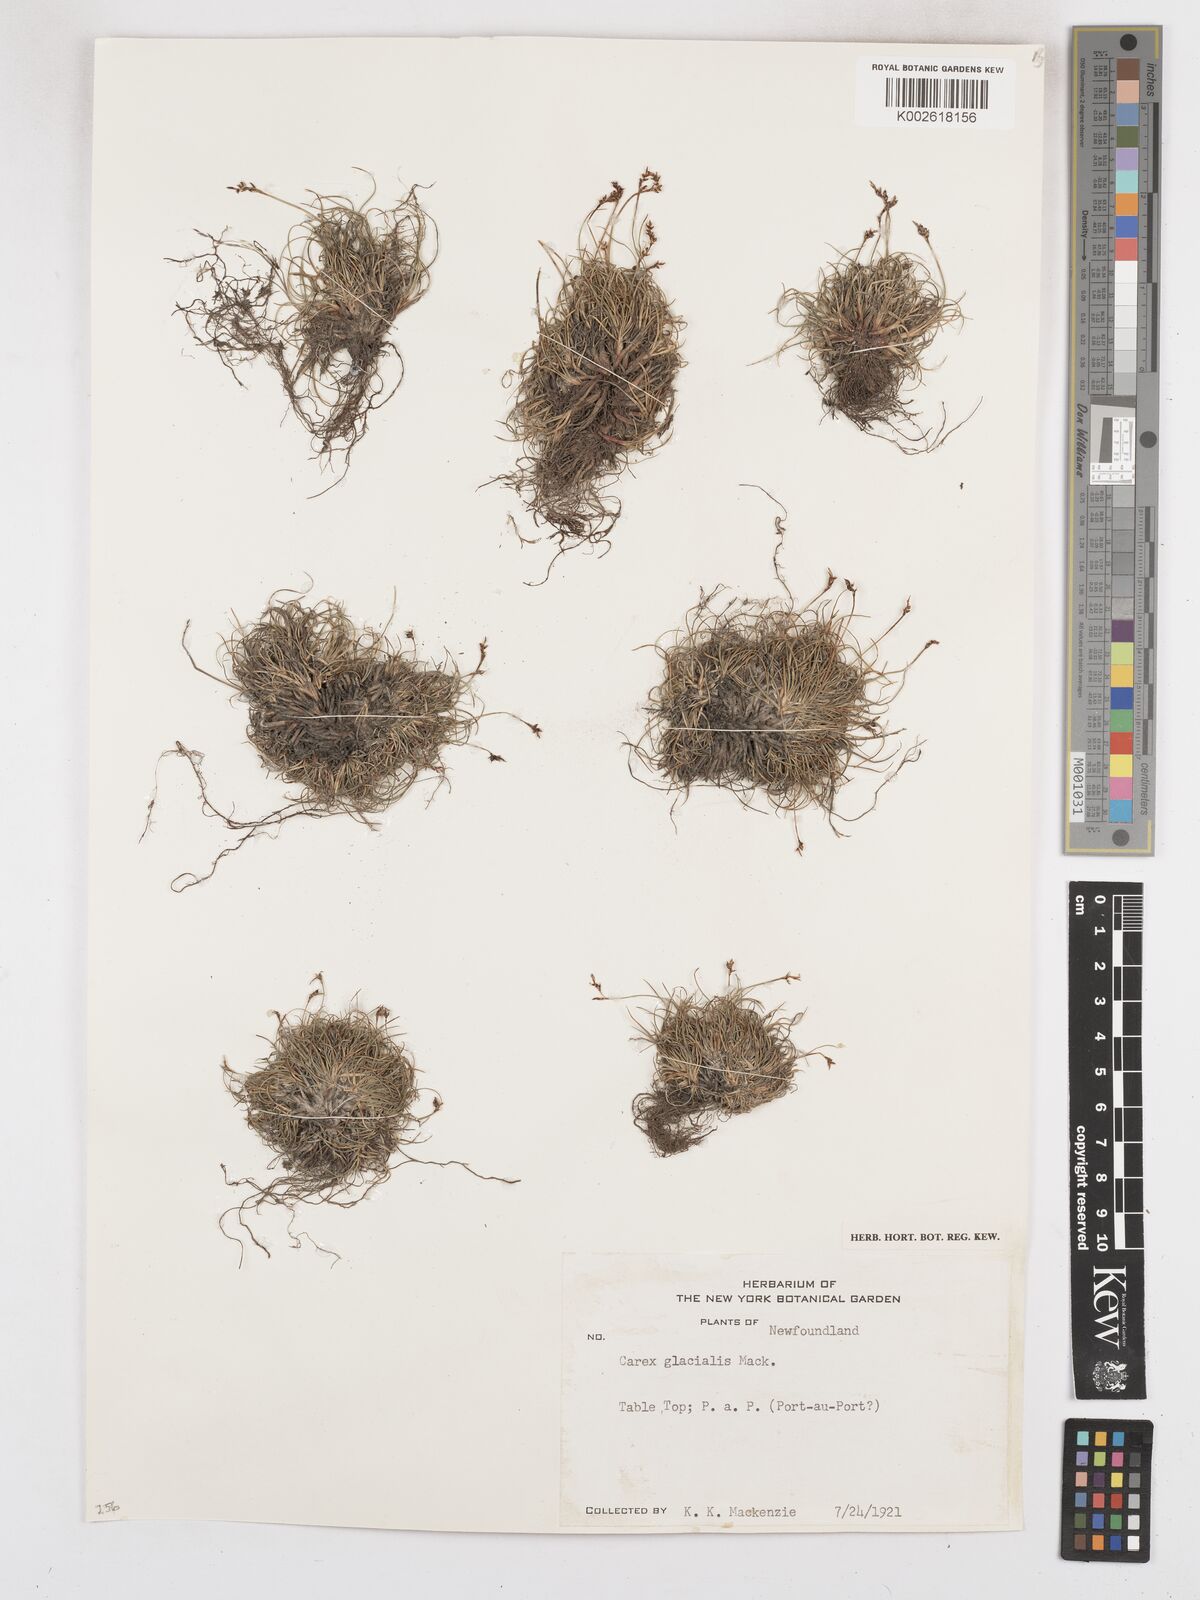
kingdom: Plantae
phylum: Tracheophyta
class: Liliopsida
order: Poales
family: Cyperaceae
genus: Carex
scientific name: Carex glacialis
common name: Newfoundland sedge
